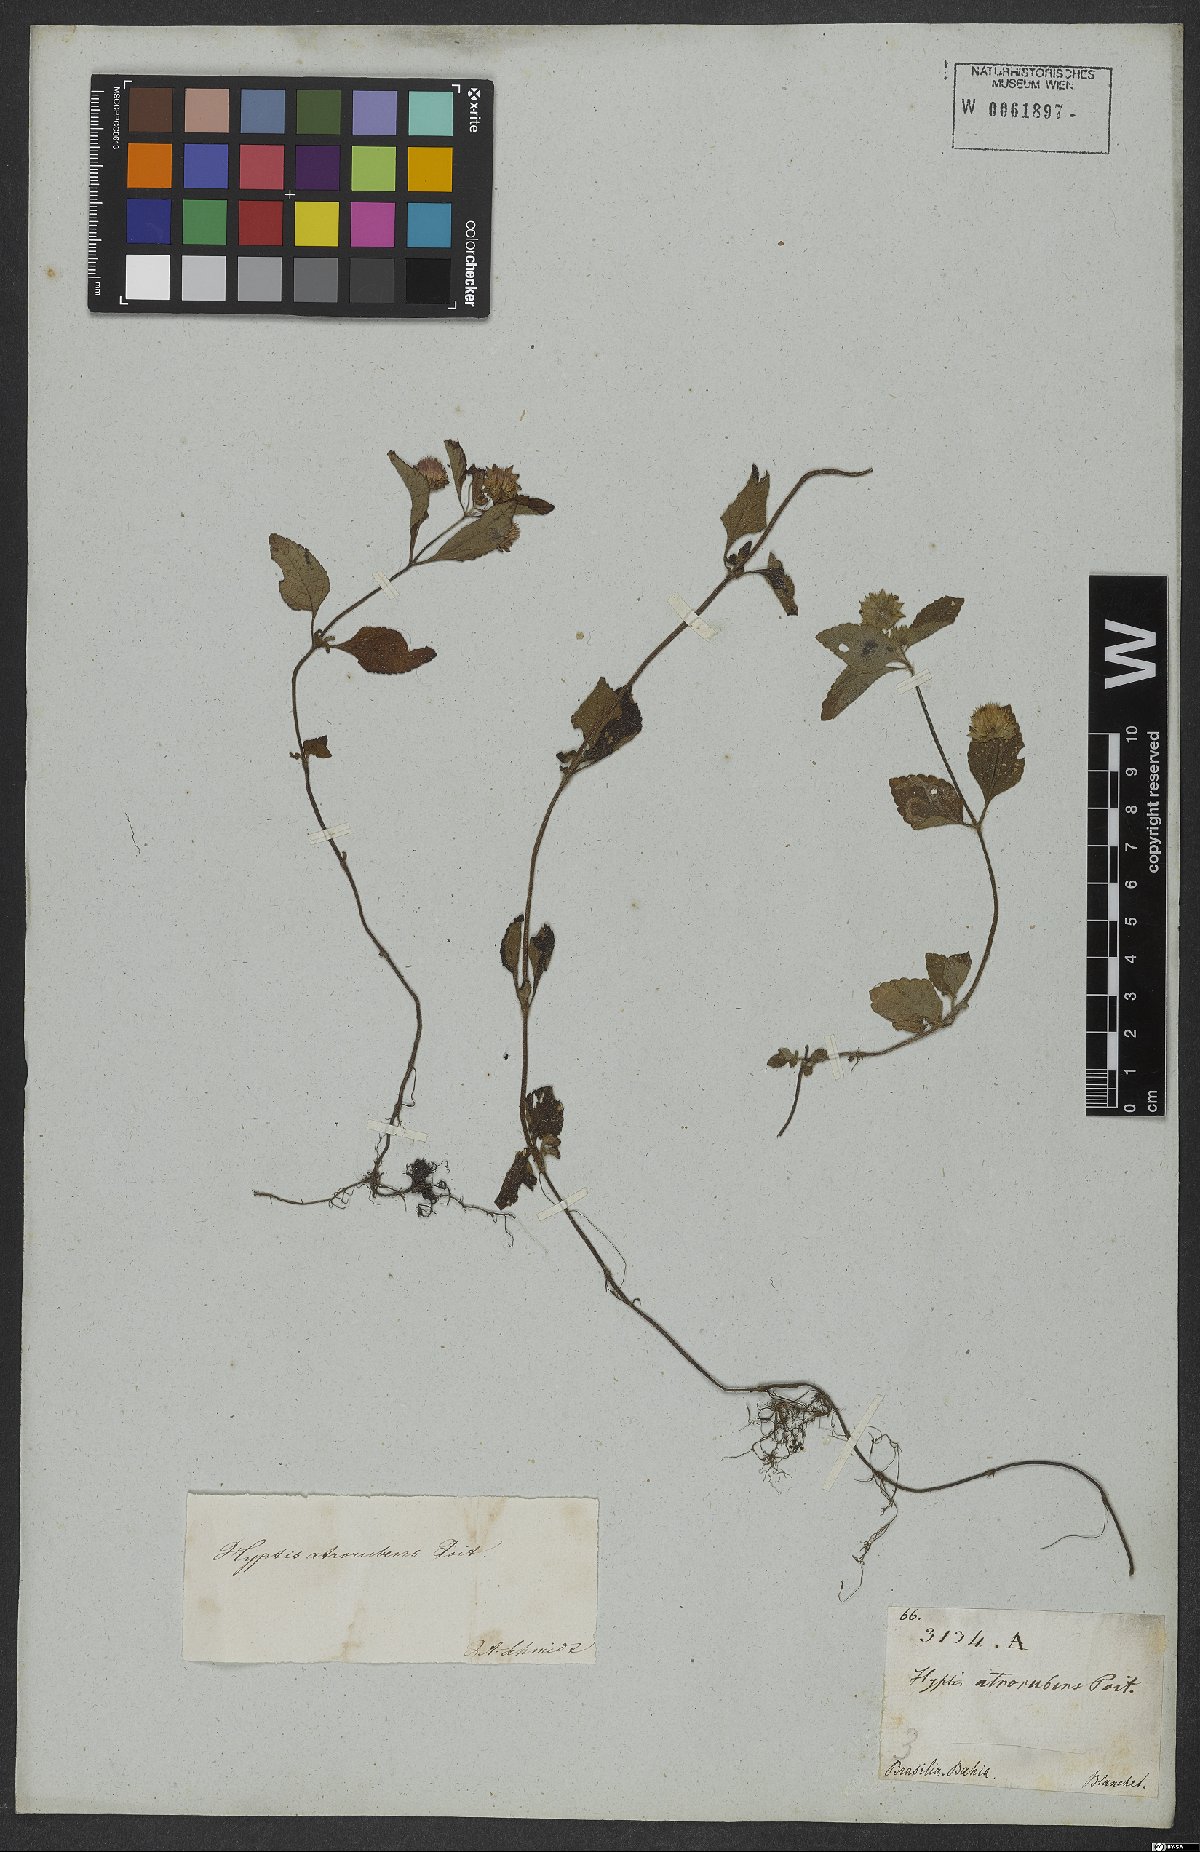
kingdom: Plantae
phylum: Tracheophyta
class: Magnoliopsida
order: Lamiales
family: Lamiaceae
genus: Hyptis
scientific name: Hyptis atrorubens
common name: Lanmant
